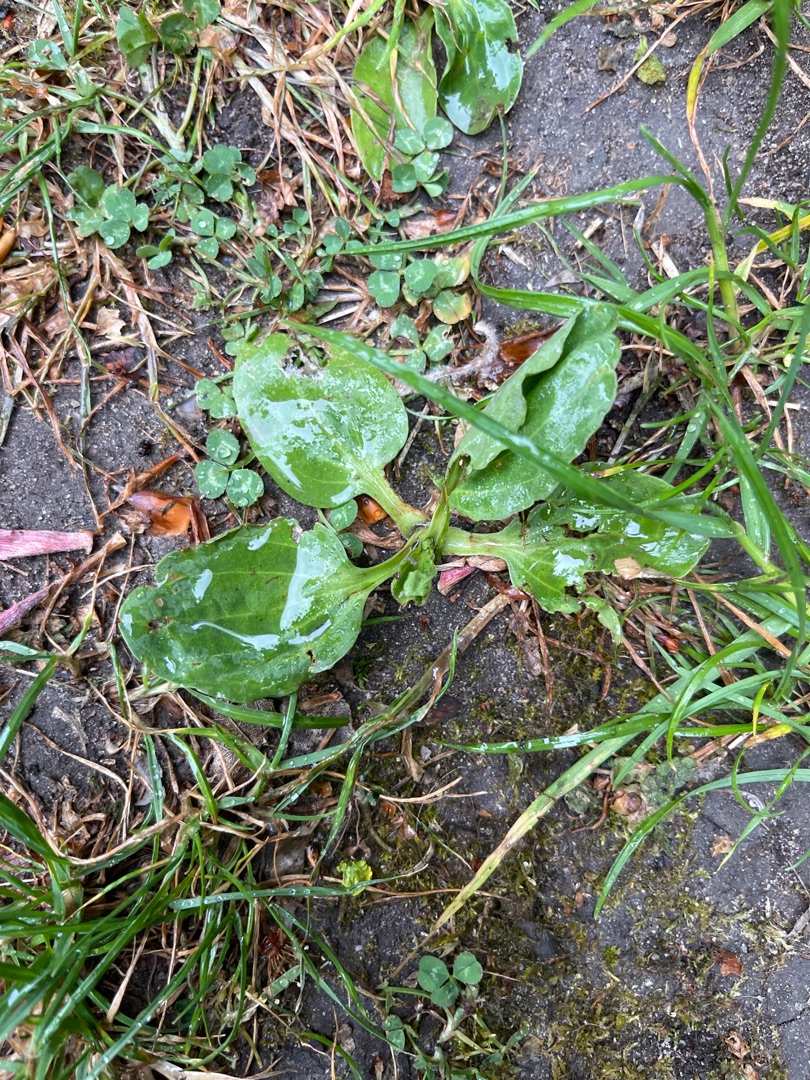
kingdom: Plantae
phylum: Tracheophyta
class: Magnoliopsida
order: Lamiales
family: Plantaginaceae
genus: Plantago
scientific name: Plantago major
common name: Glat vejbred
